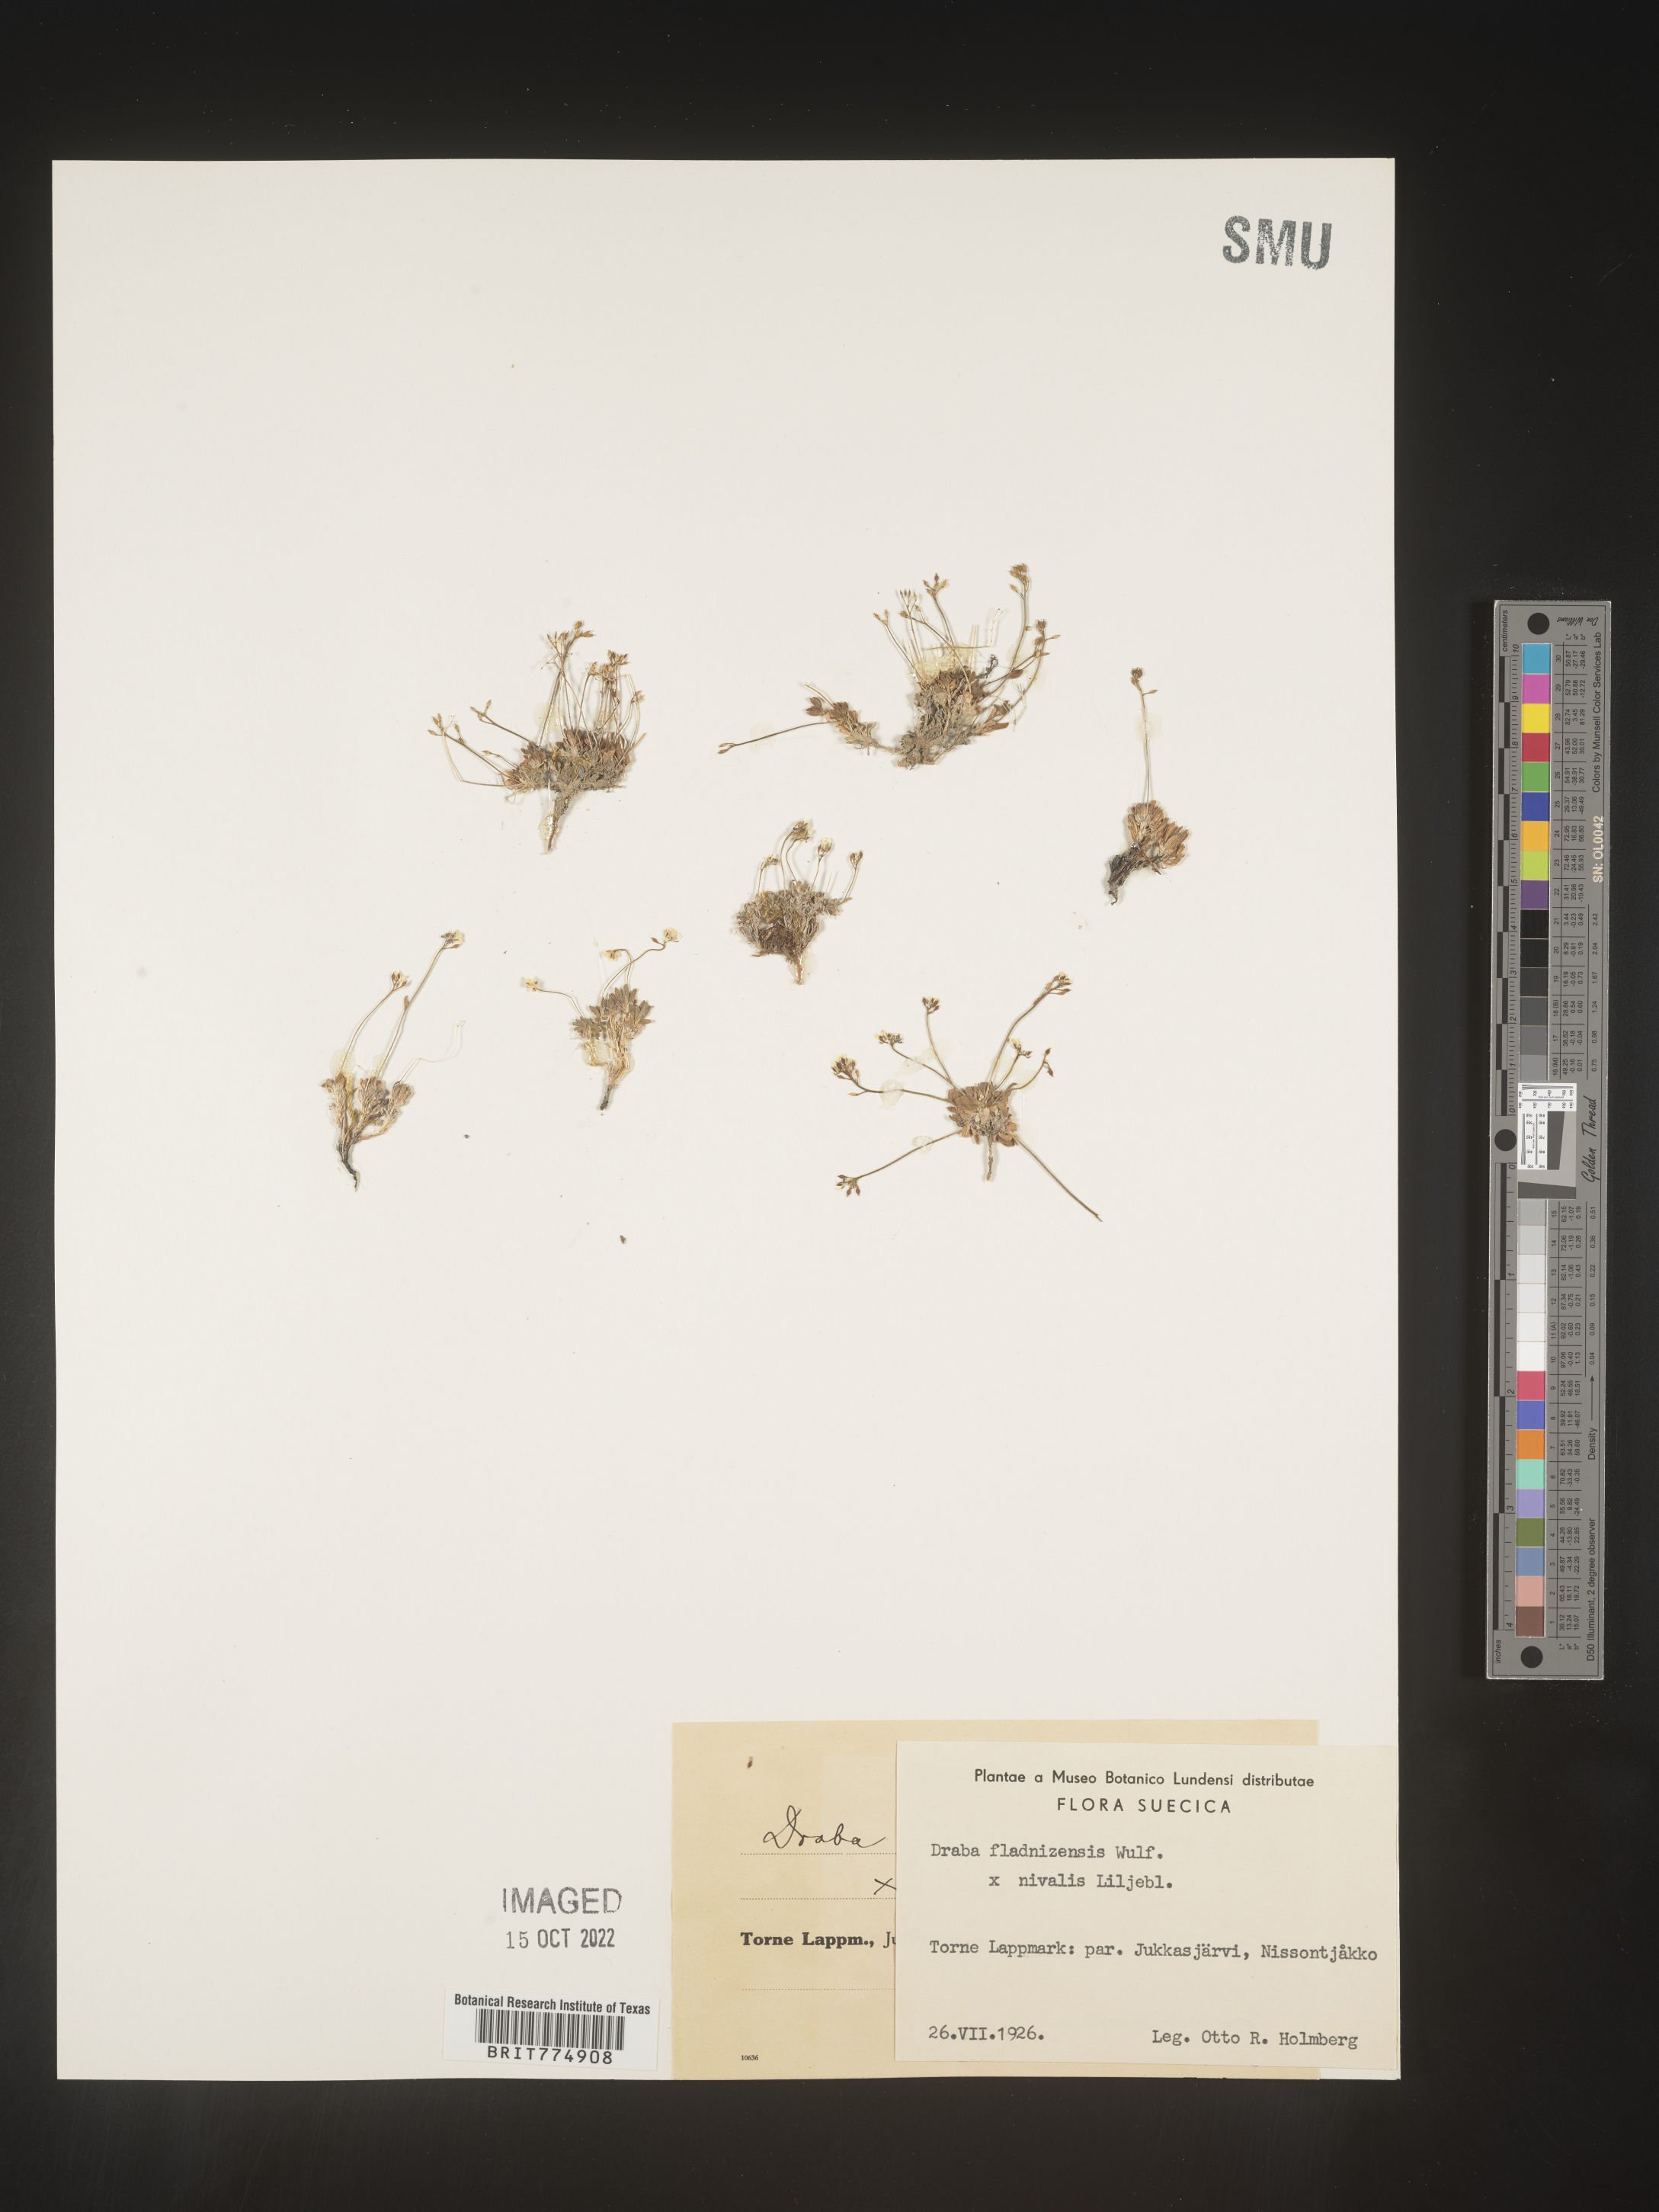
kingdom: Plantae
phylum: Tracheophyta
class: Magnoliopsida
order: Brassicales
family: Brassicaceae
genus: Draba
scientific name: Draba
